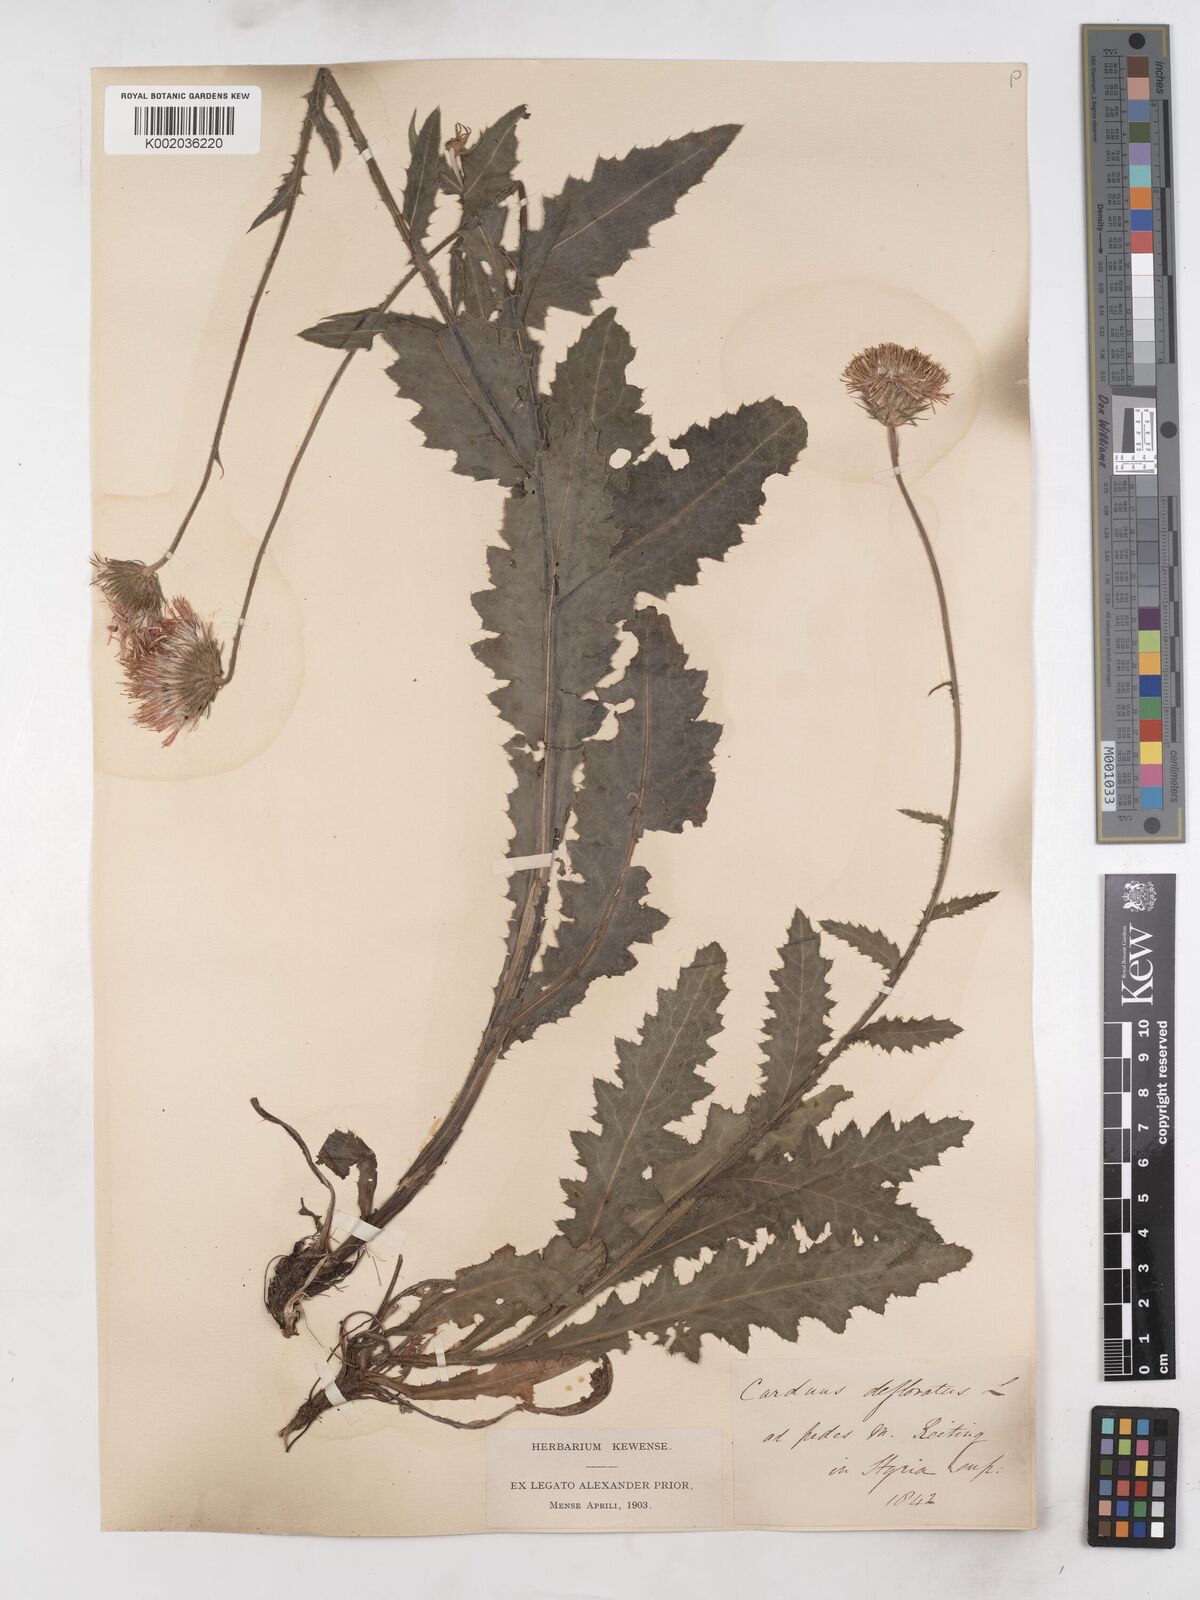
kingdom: Plantae
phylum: Tracheophyta
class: Magnoliopsida
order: Asterales
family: Asteraceae
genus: Carduus
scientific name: Carduus defloratus
